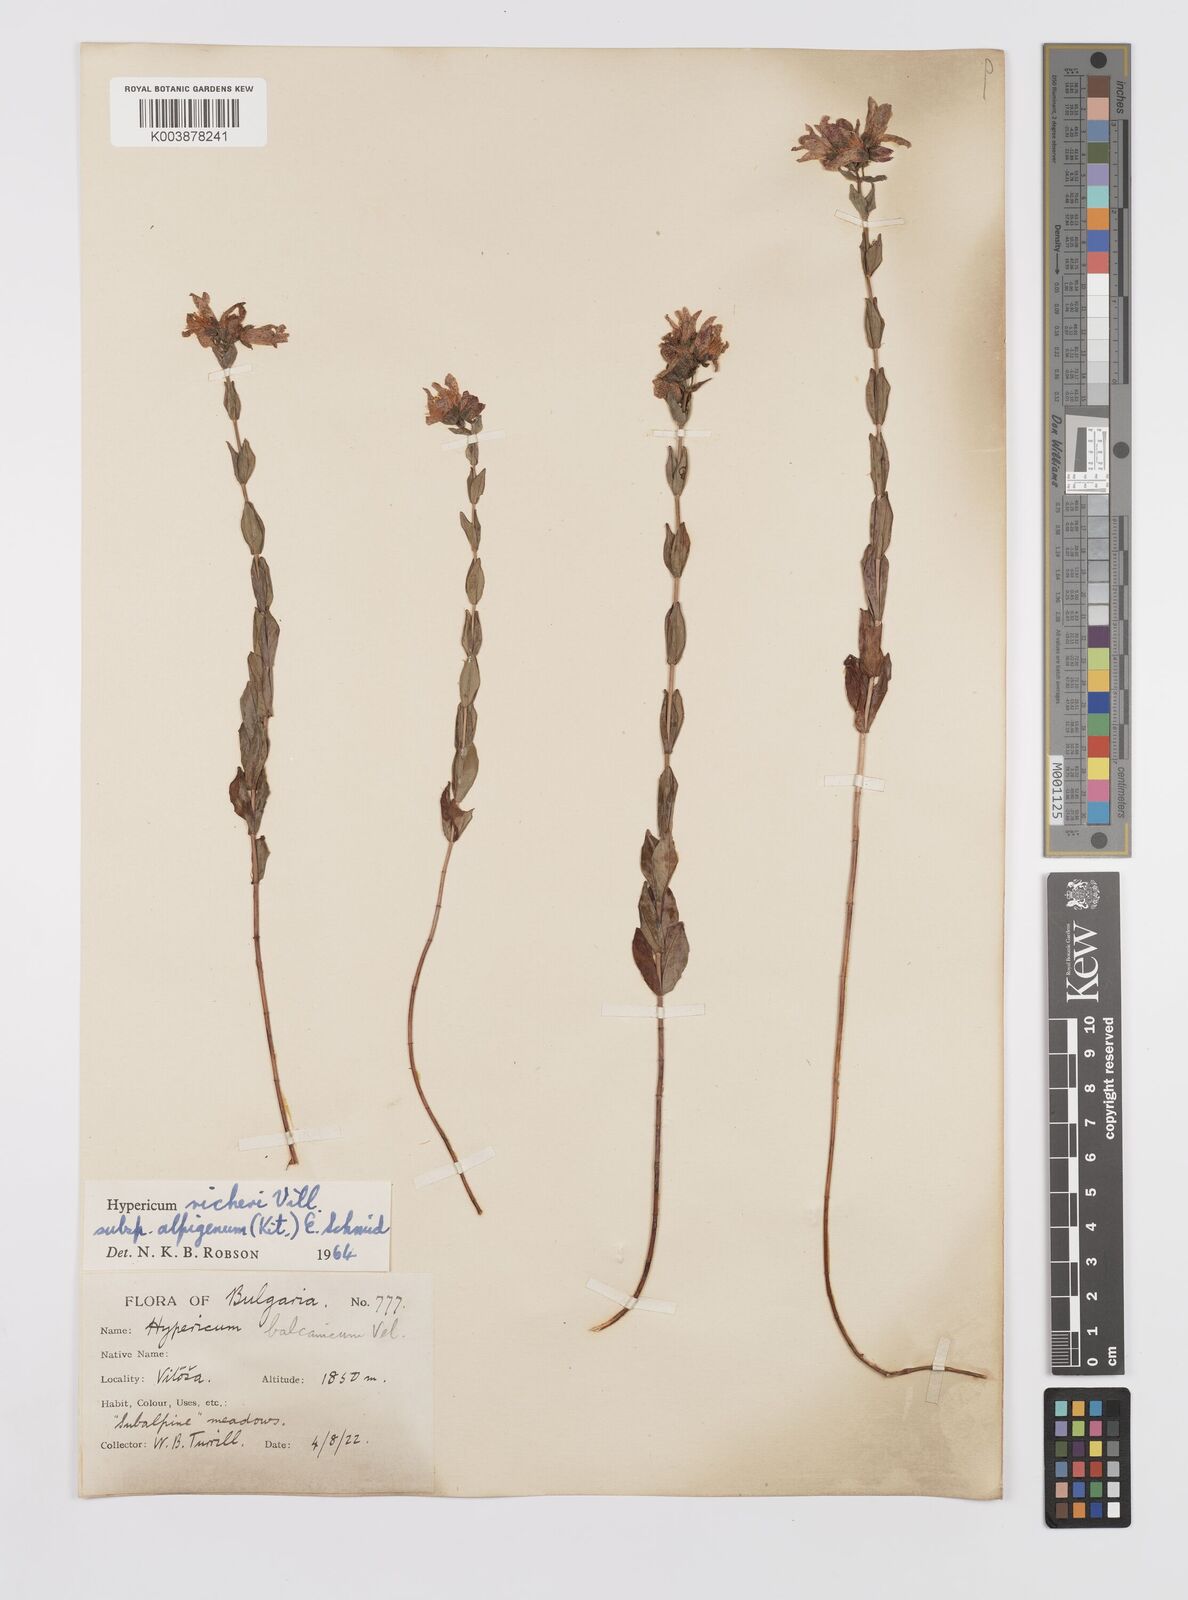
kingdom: Plantae
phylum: Tracheophyta
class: Magnoliopsida
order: Malpighiales
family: Hypericaceae
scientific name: Hypericaceae
